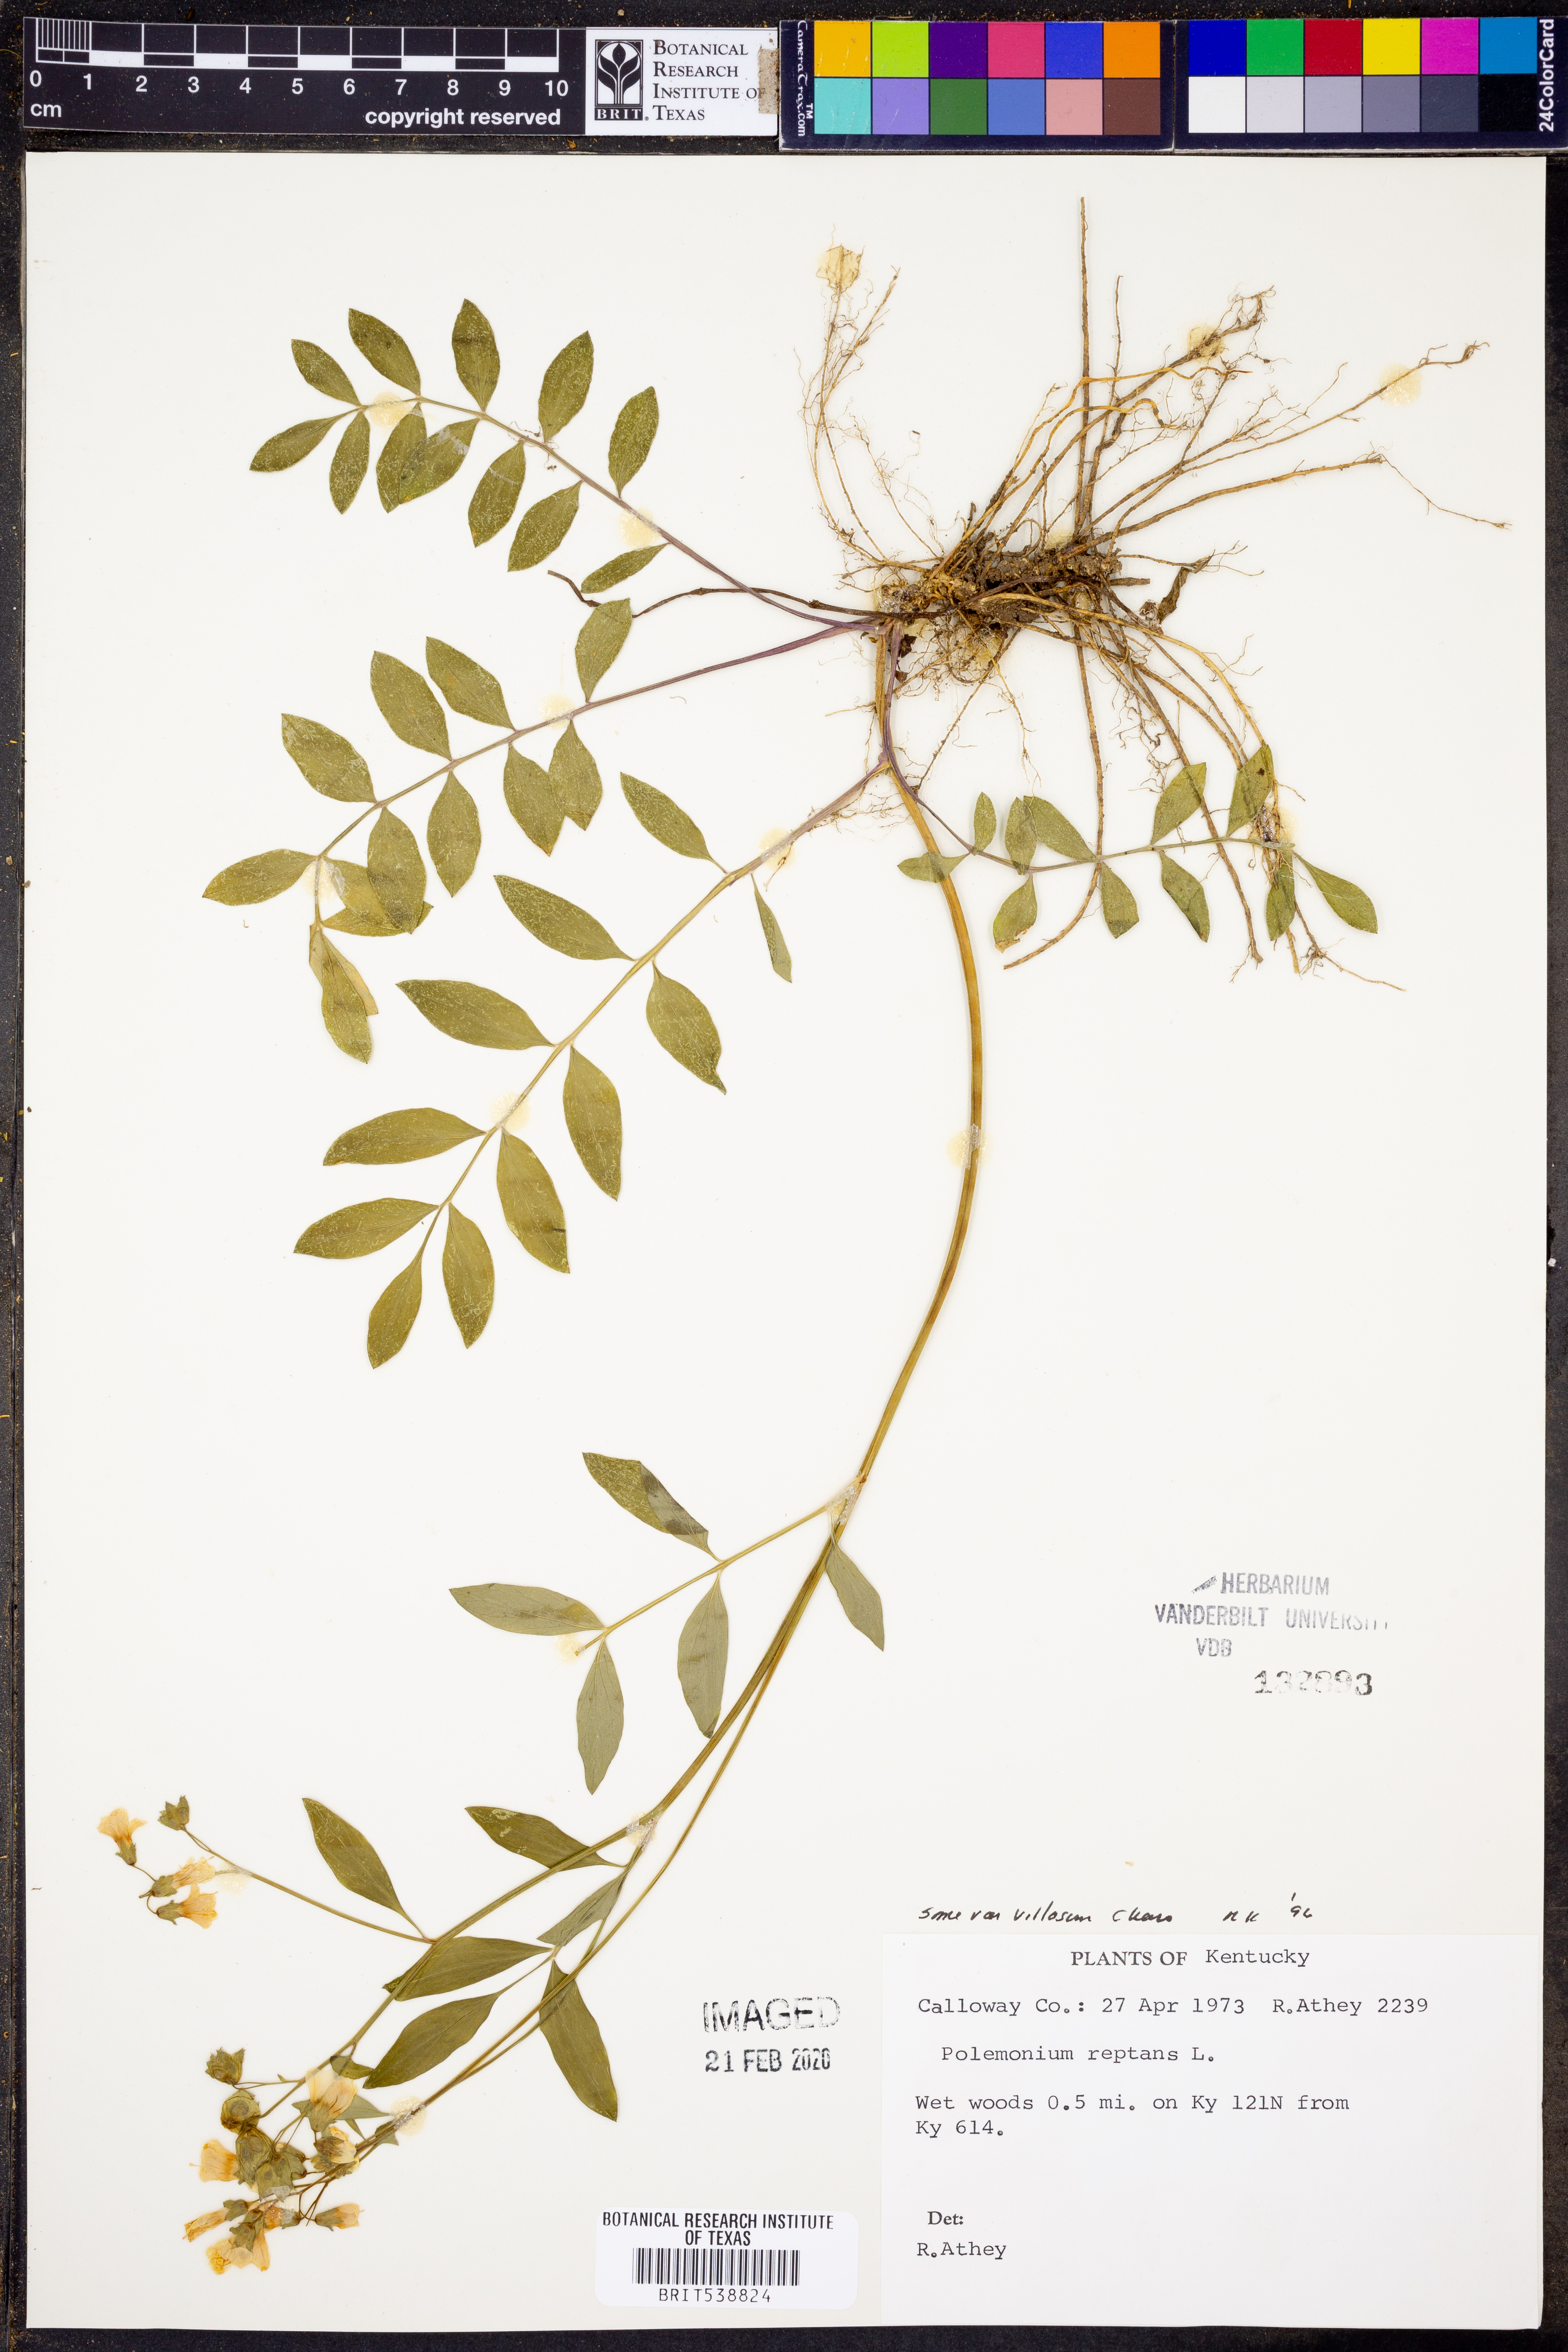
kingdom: Plantae
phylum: Tracheophyta
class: Magnoliopsida
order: Ericales
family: Polemoniaceae
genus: Polemonium
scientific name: Polemonium reptans
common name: Creeping jacob's-ladder
